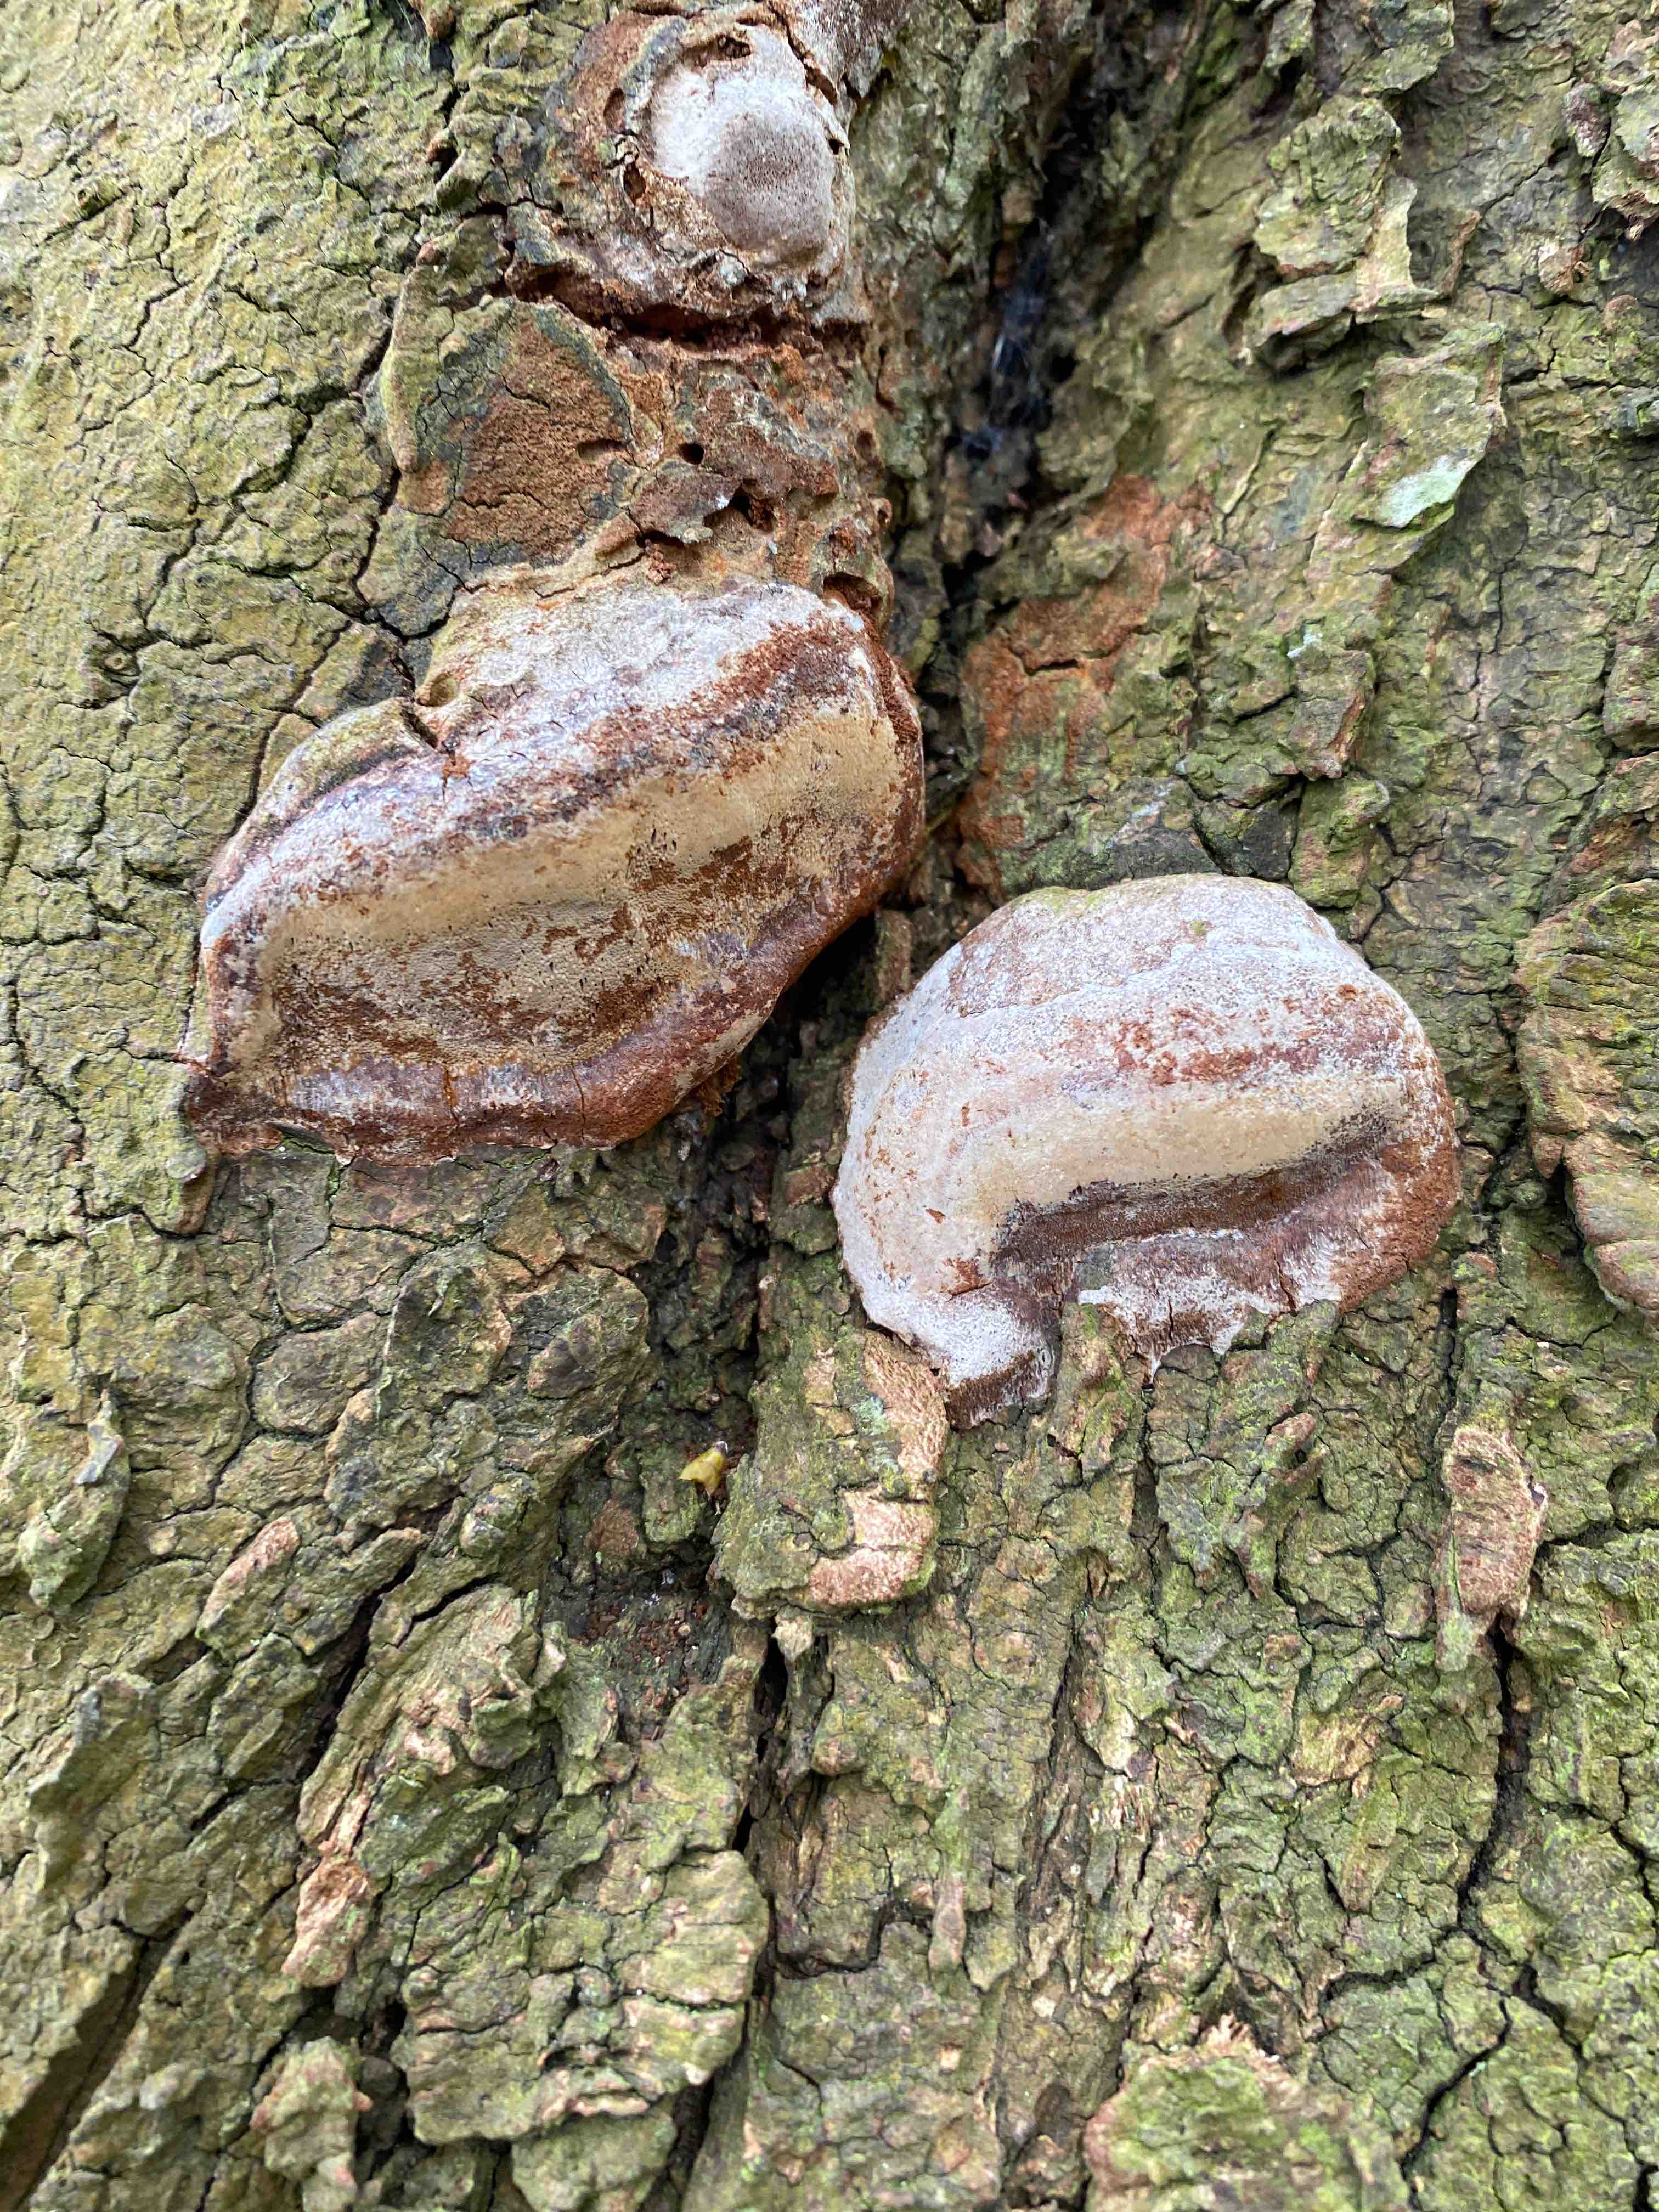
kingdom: Fungi
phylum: Basidiomycota
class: Agaricomycetes
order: Hymenochaetales
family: Hymenochaetaceae
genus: Phellinus
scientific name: Phellinus pomaceus
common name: blomme-ildporesvamp
